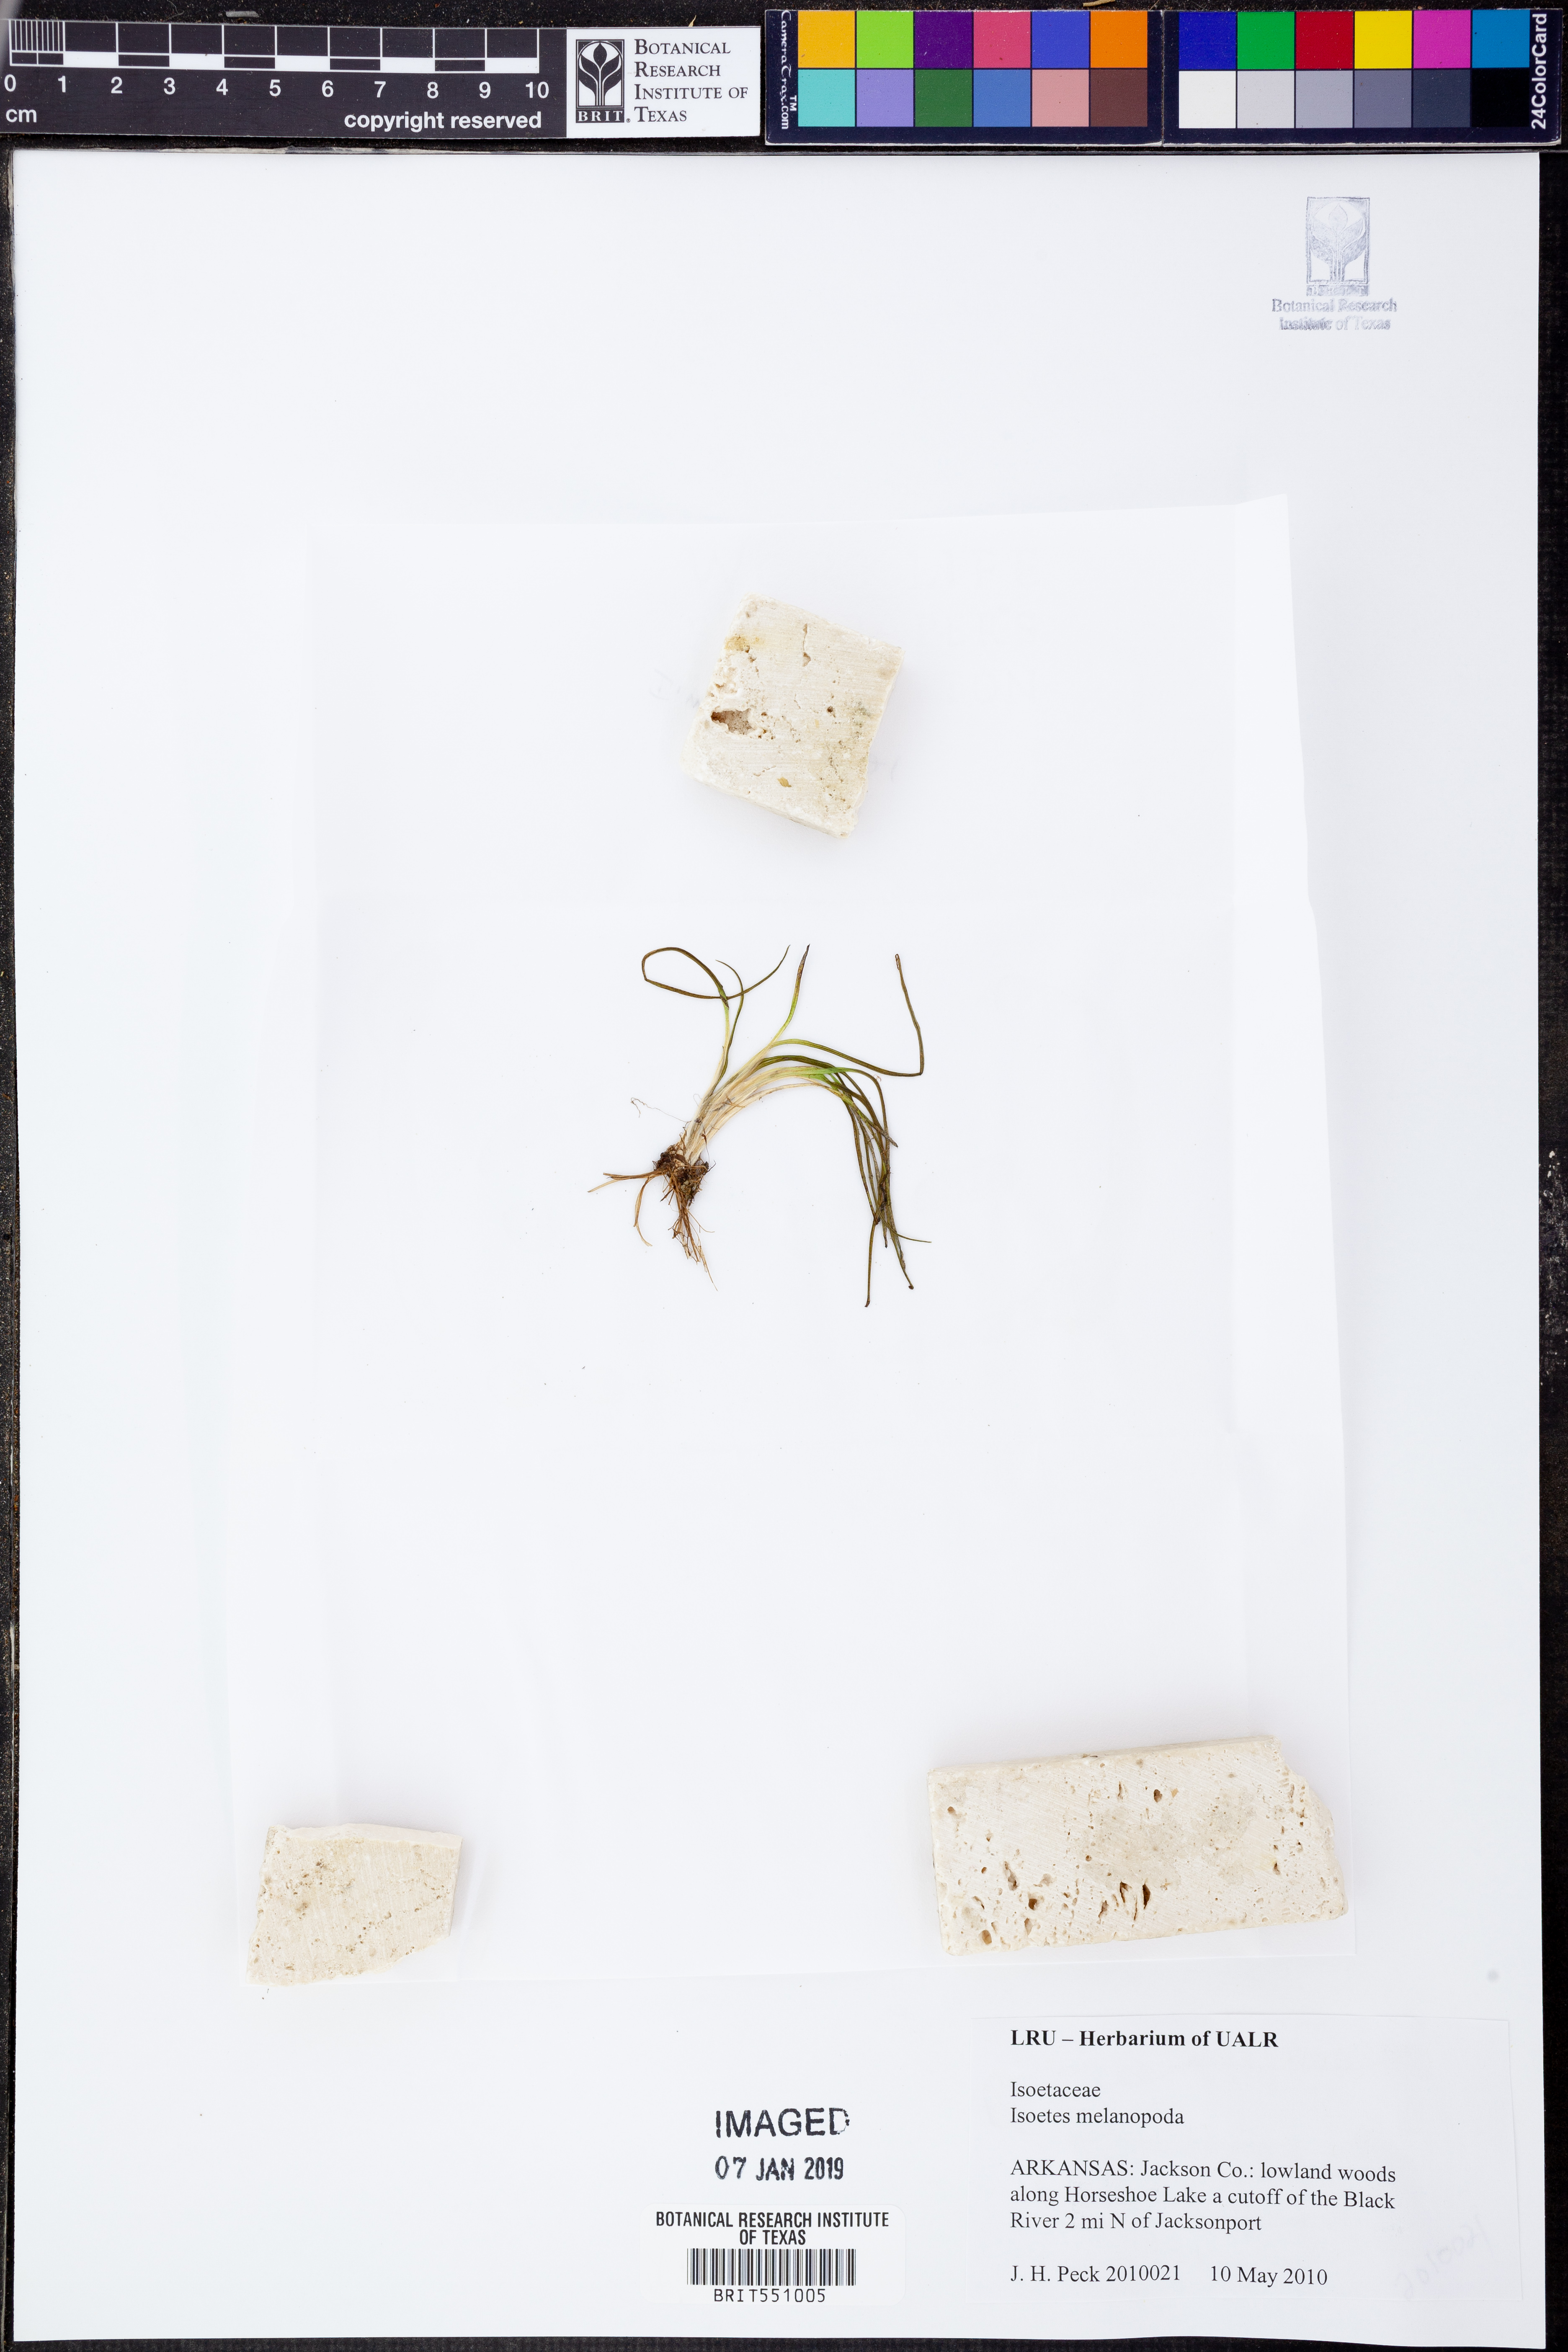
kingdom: Plantae
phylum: Tracheophyta
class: Lycopodiopsida
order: Isoetales
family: Isoetaceae
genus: Isoetes
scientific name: Isoetes melanopoda
